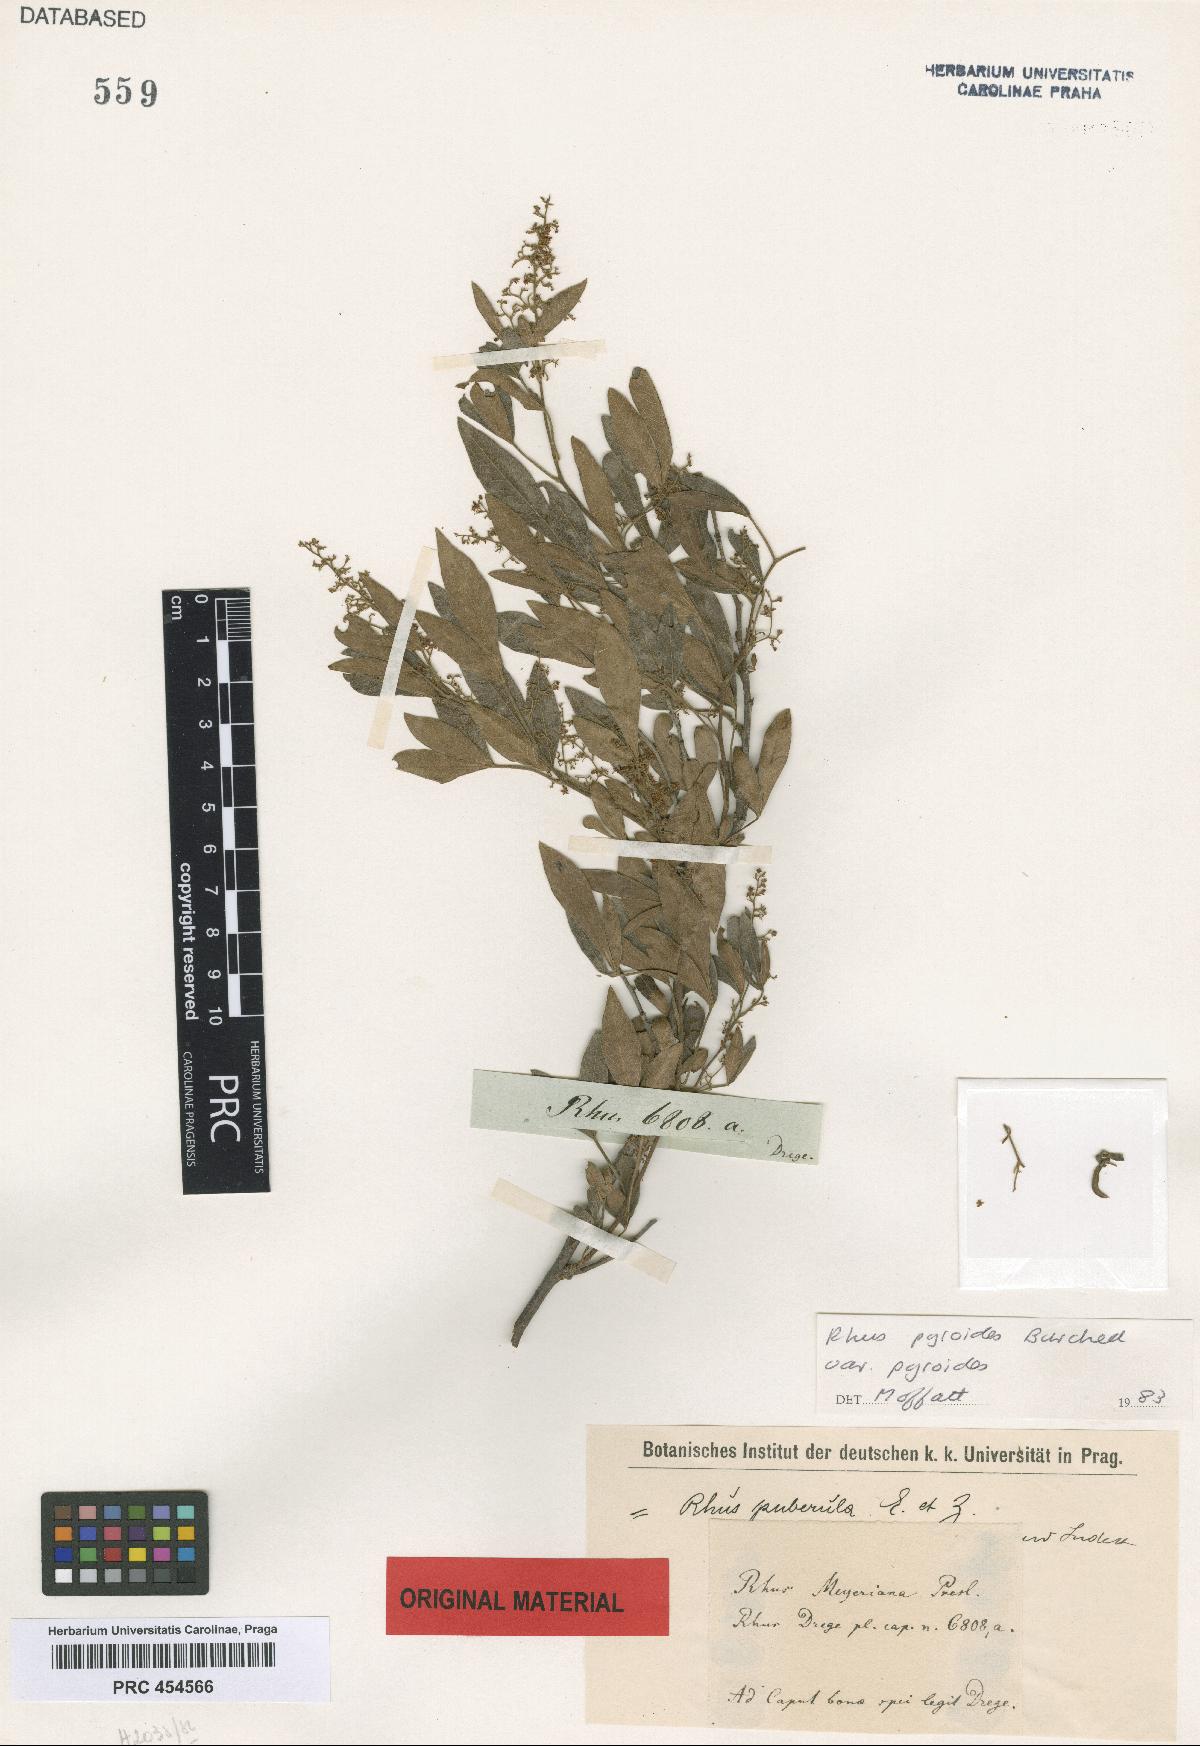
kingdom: Plantae
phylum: Tracheophyta
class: Magnoliopsida
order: Sapindales
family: Anacardiaceae
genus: Searsia
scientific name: Searsia pyroides
